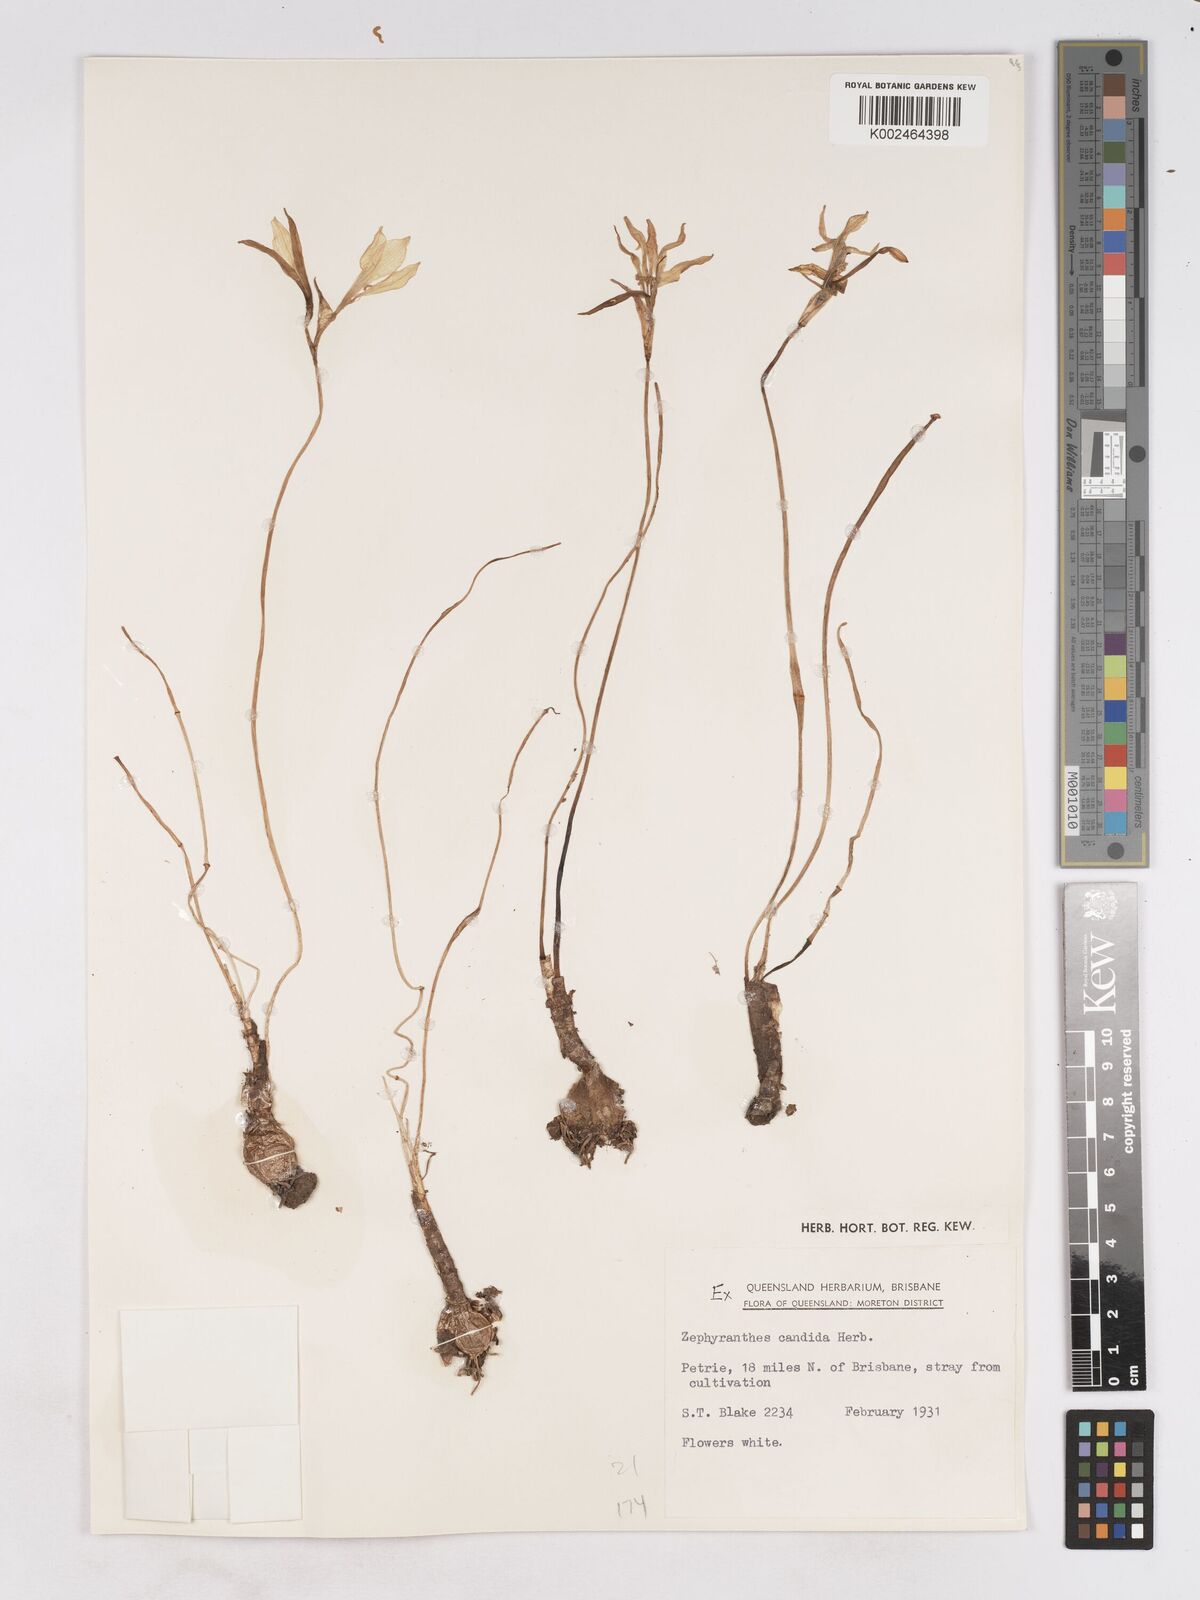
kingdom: Plantae
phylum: Tracheophyta
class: Liliopsida
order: Asparagales
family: Amaryllidaceae
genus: Zephyranthes
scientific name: Zephyranthes candida
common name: Autumn zephyrlily
